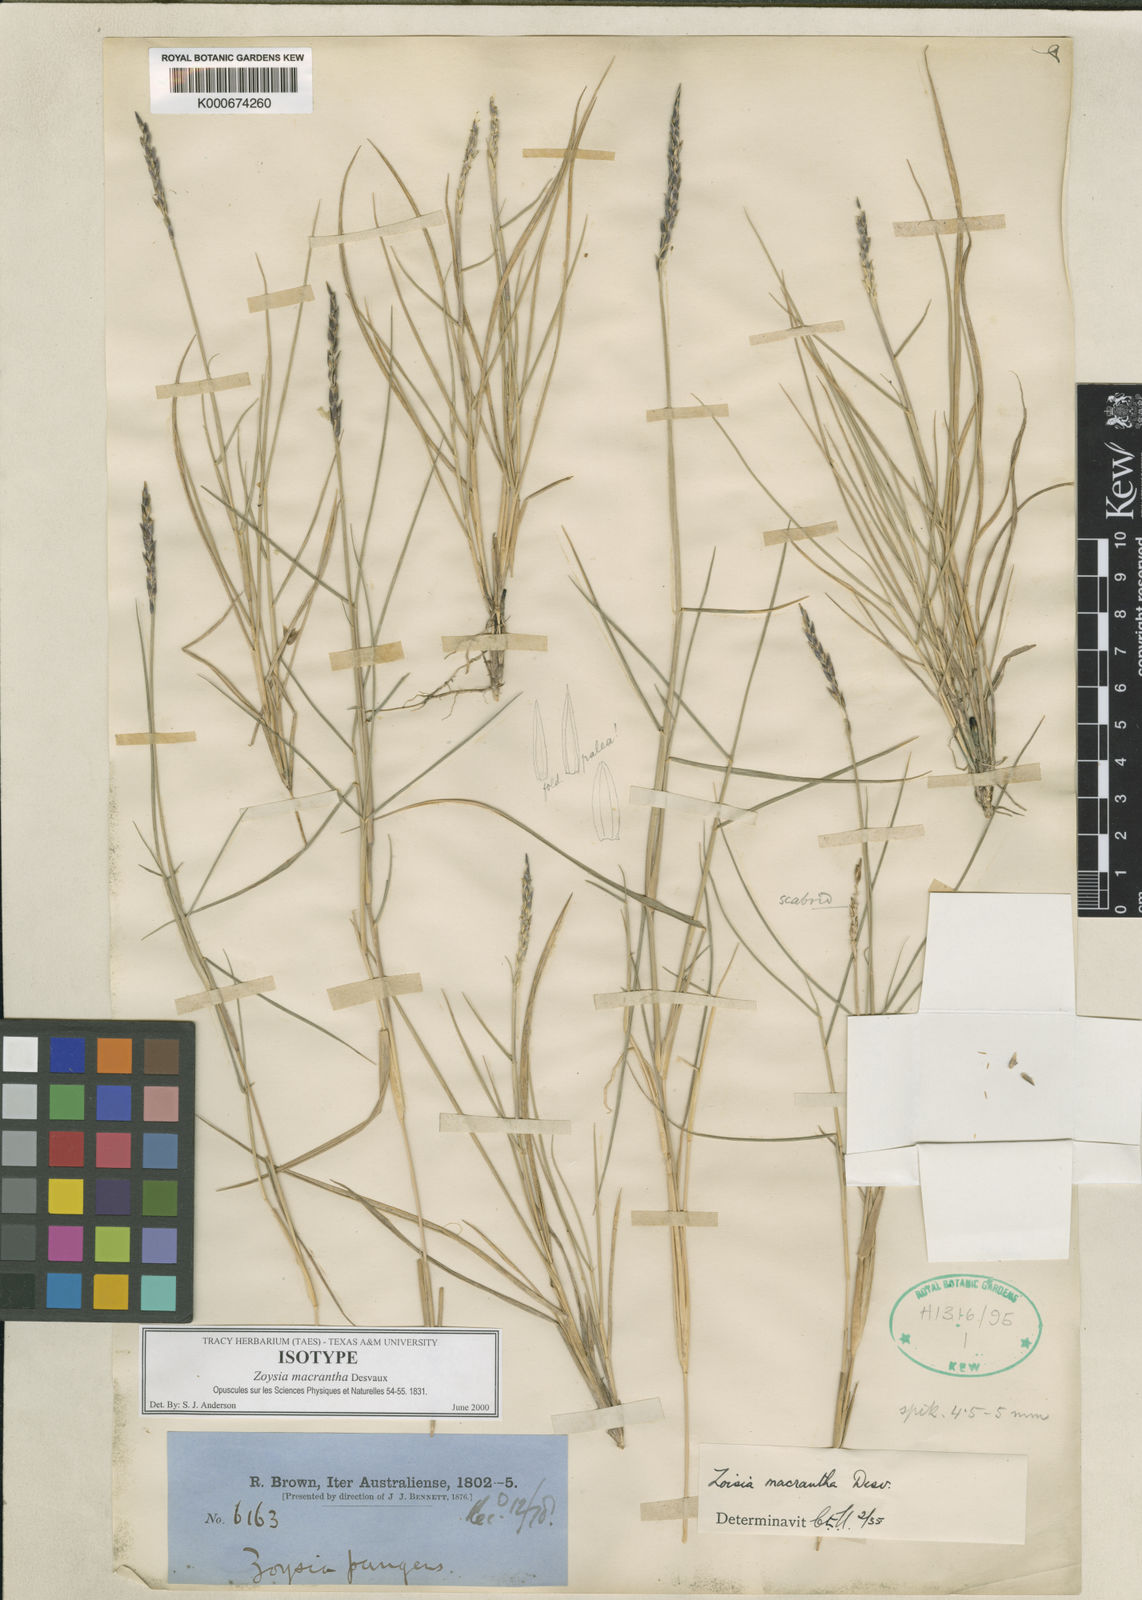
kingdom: Plantae
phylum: Tracheophyta
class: Liliopsida
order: Poales
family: Poaceae
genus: Zoysia
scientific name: Zoysia macrantha
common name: Korean lawn grass
